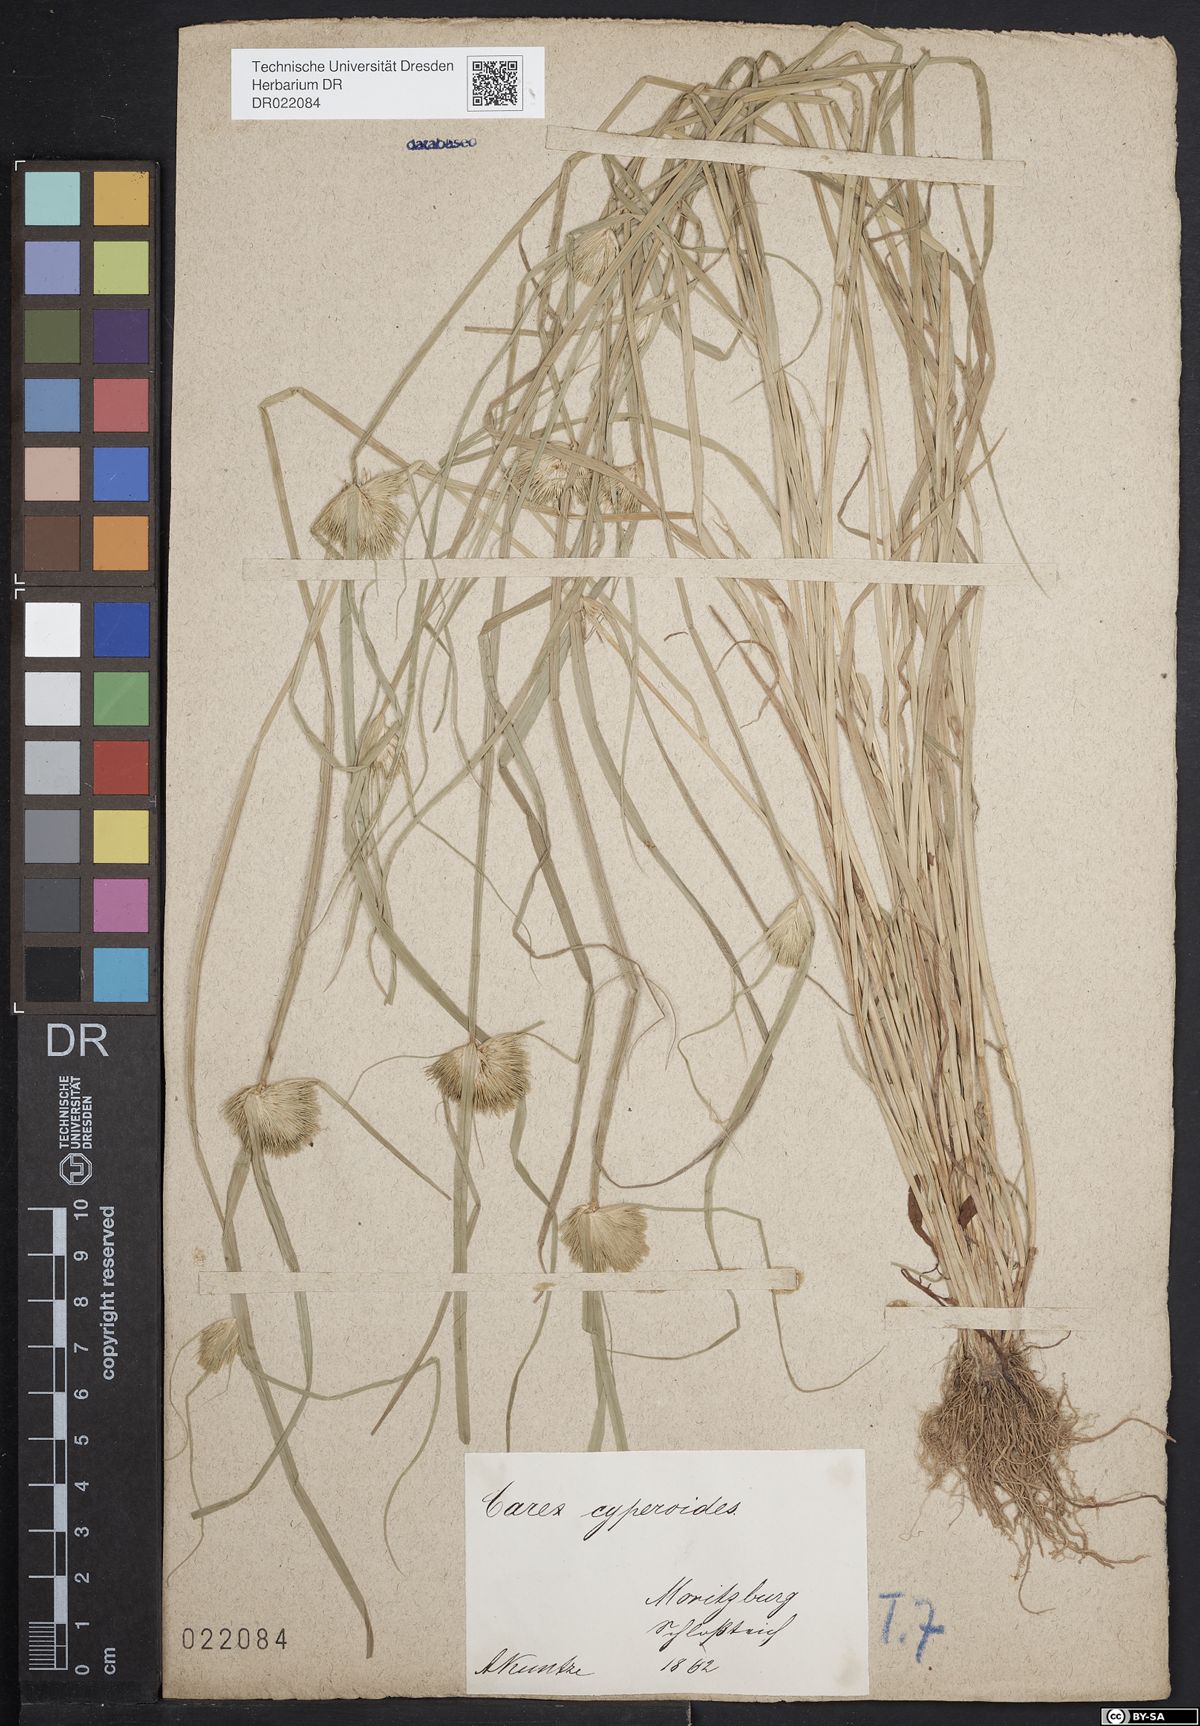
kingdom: Plantae
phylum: Tracheophyta
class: Liliopsida
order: Poales
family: Cyperaceae
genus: Carex
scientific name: Carex bohemica
